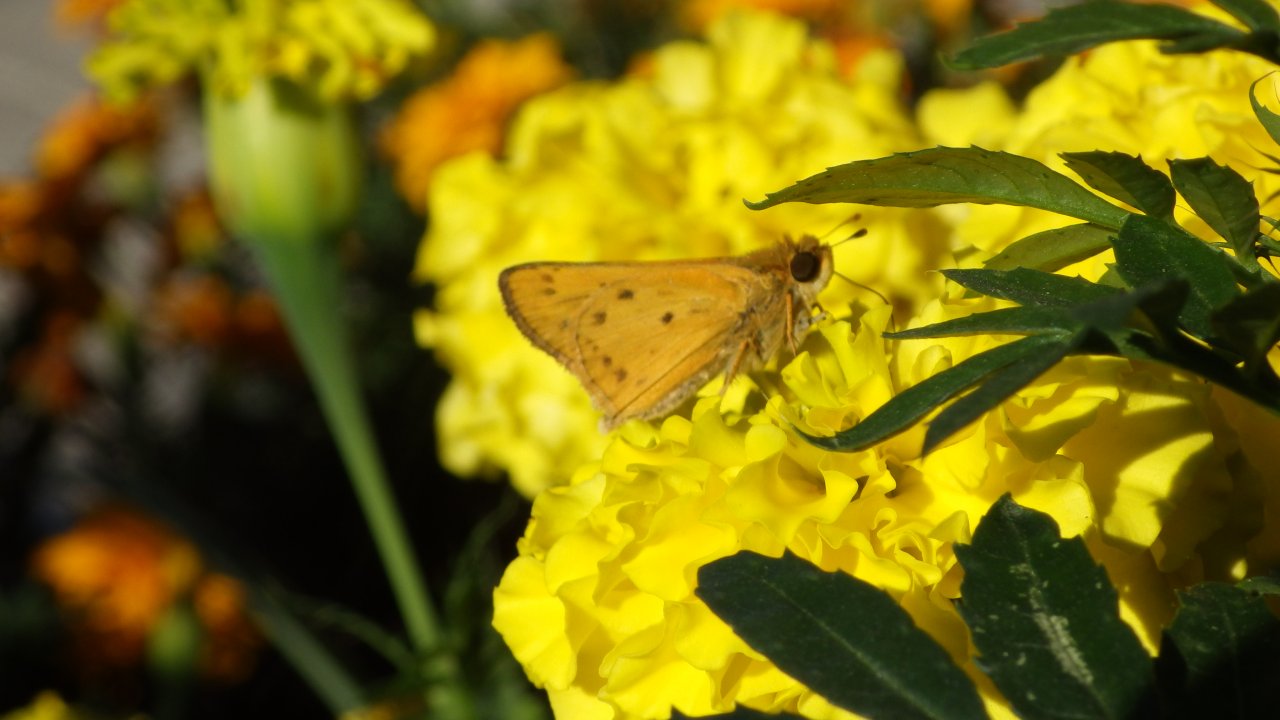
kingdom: Animalia
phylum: Arthropoda
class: Insecta
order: Lepidoptera
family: Hesperiidae
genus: Hylephila
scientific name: Hylephila phyleus
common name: Fiery Skipper
